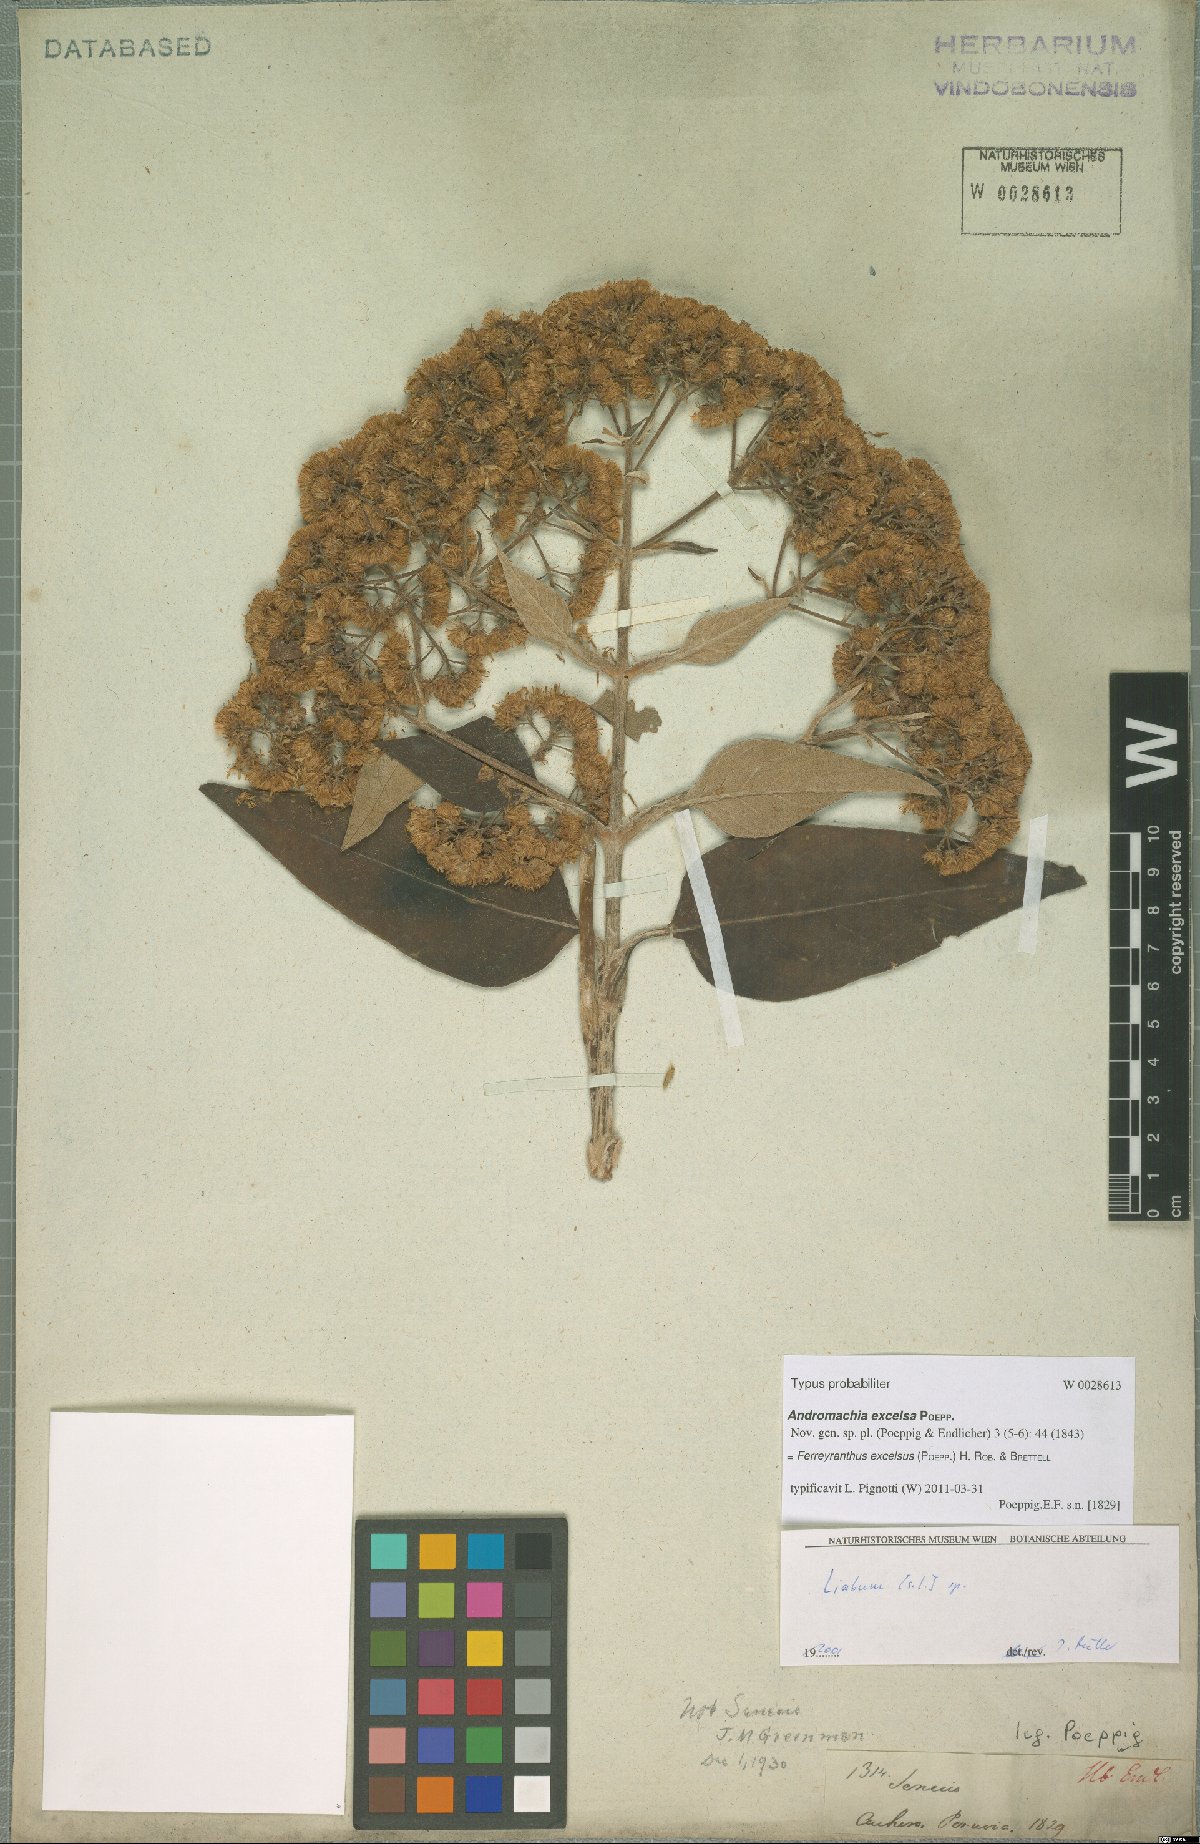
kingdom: Plantae
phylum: Tracheophyta
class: Magnoliopsida
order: Asterales
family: Asteraceae
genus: Ferreyranthus
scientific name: Ferreyranthus excelsus
